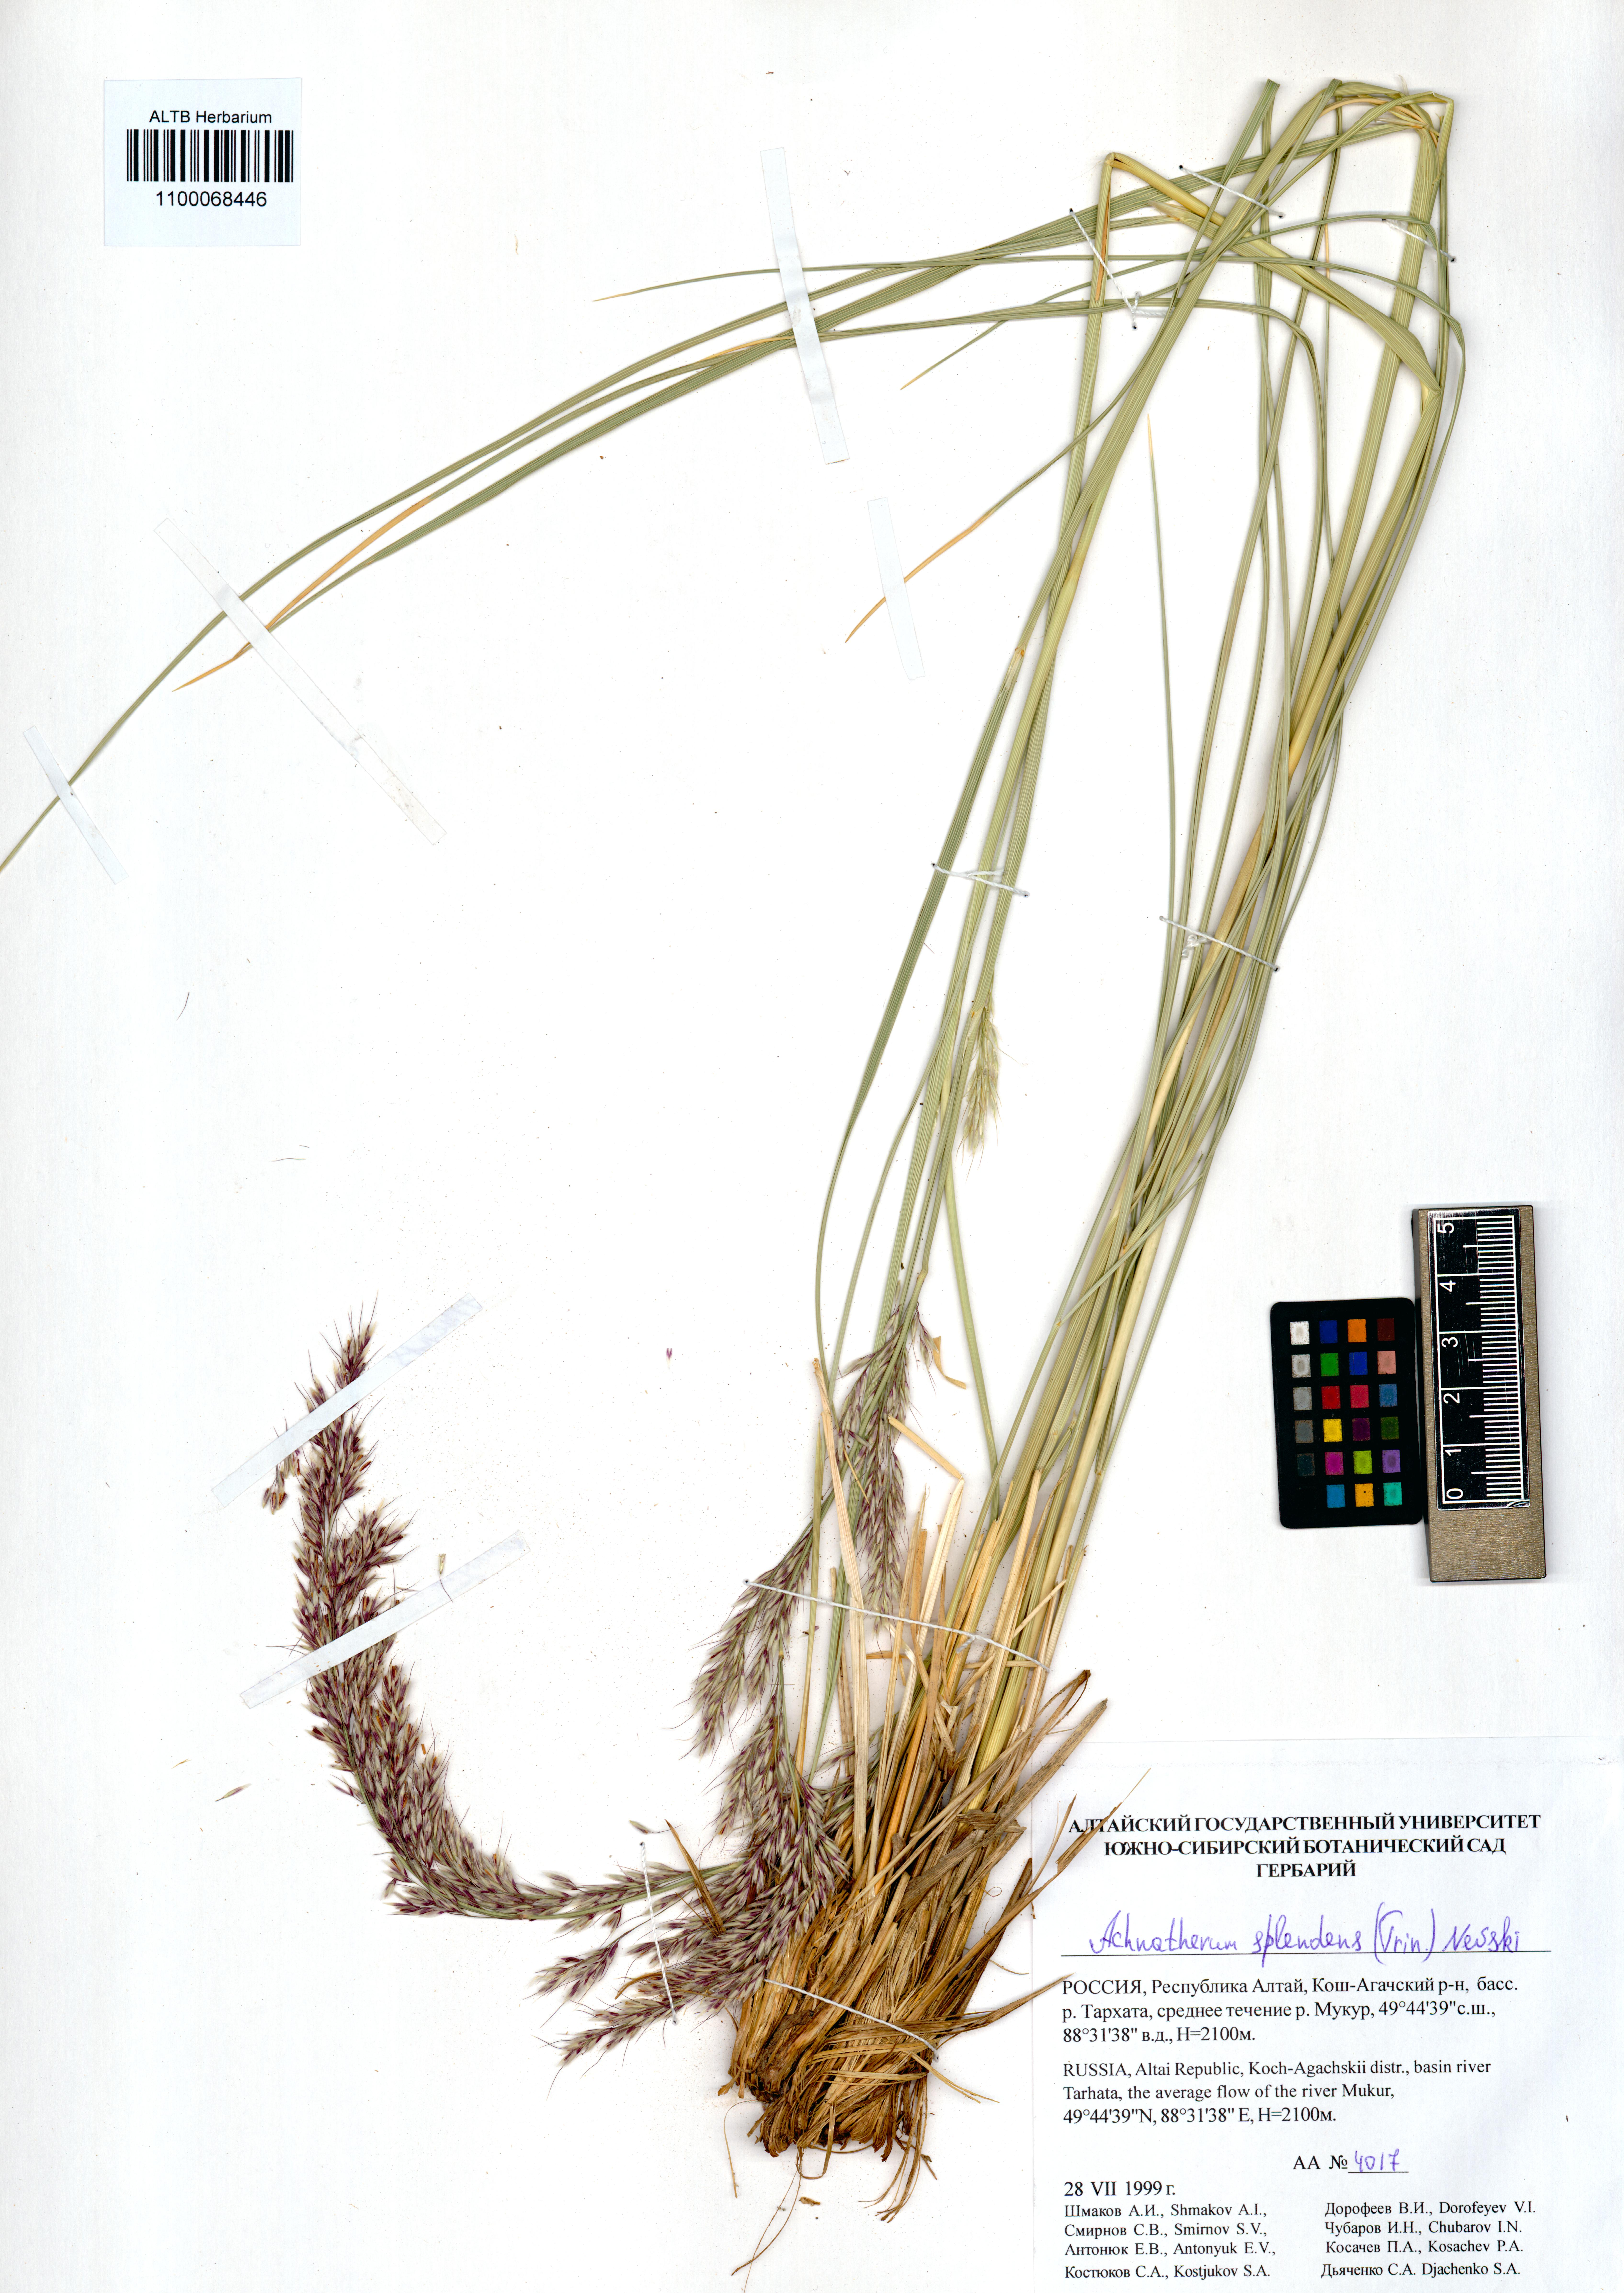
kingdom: Plantae
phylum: Tracheophyta
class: Liliopsida
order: Poales
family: Poaceae
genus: Neotrinia
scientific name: Neotrinia splendens
